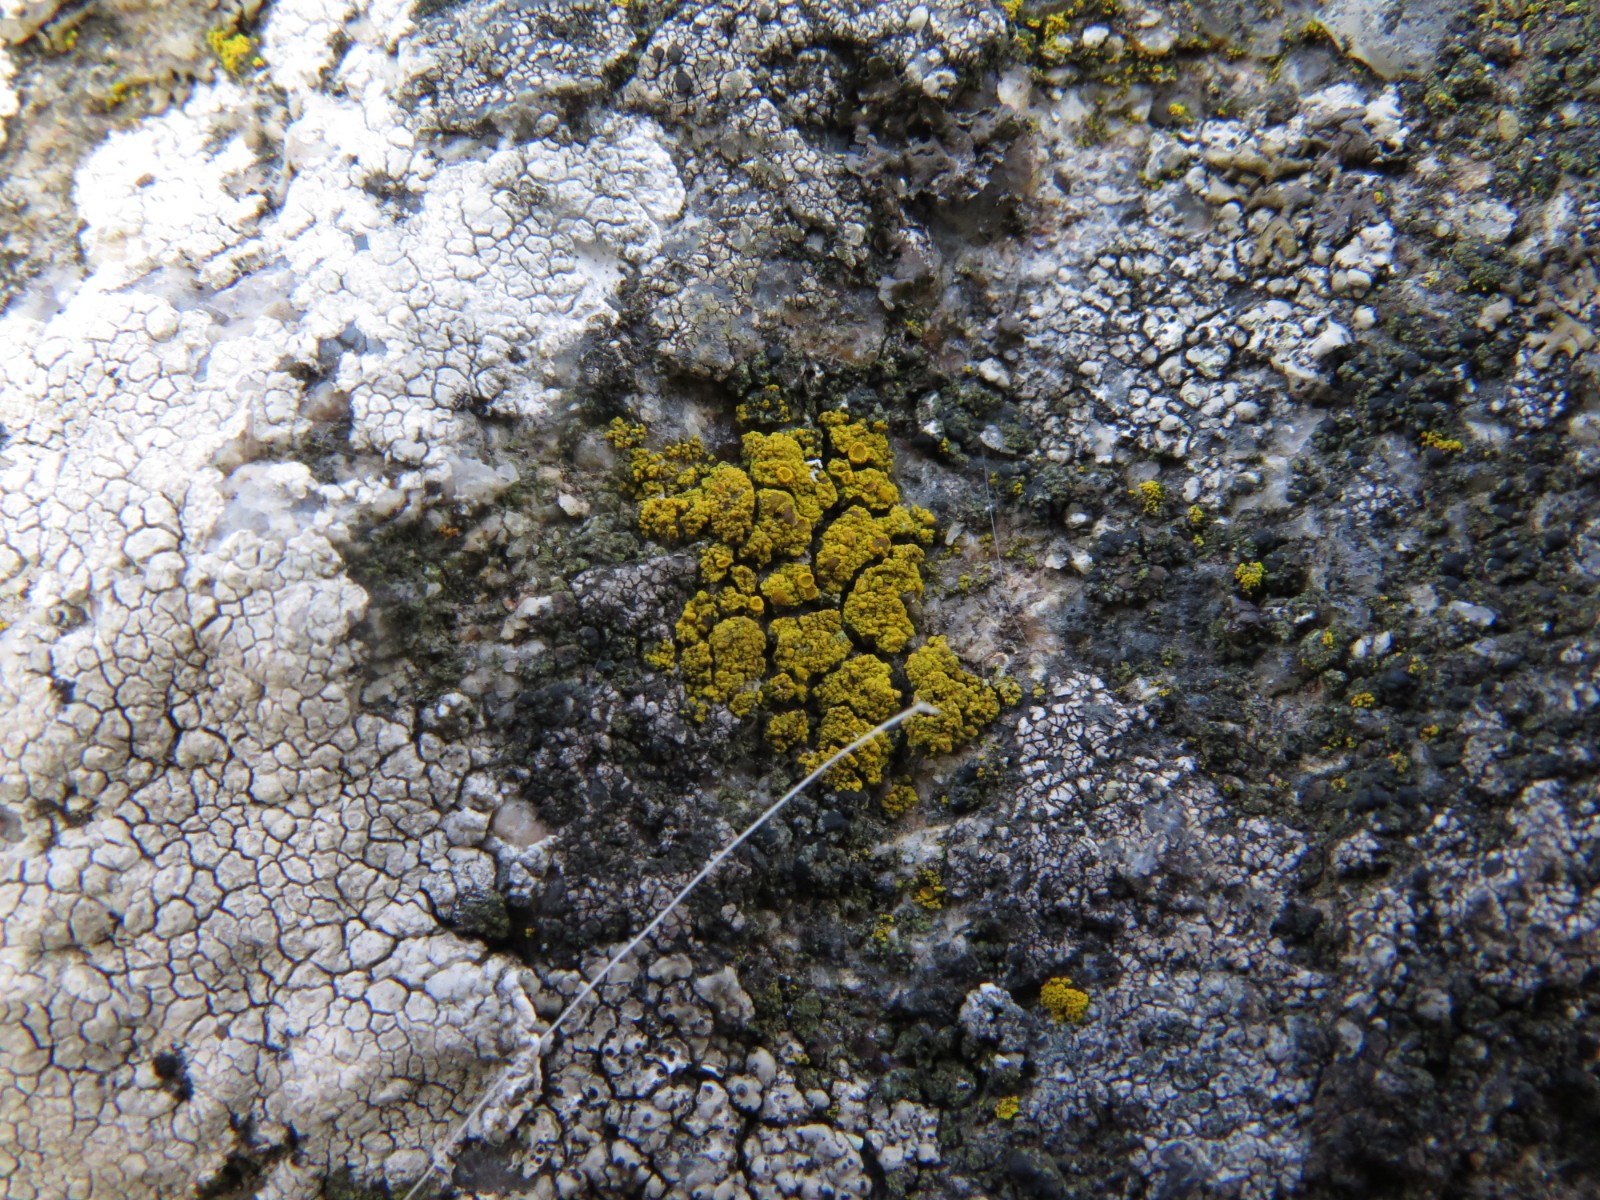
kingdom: Fungi
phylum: Ascomycota
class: Candelariomycetes
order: Candelariales
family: Candelariaceae
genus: Candelariella
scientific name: Candelariella vitellina
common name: almindelig æggeblommelav
